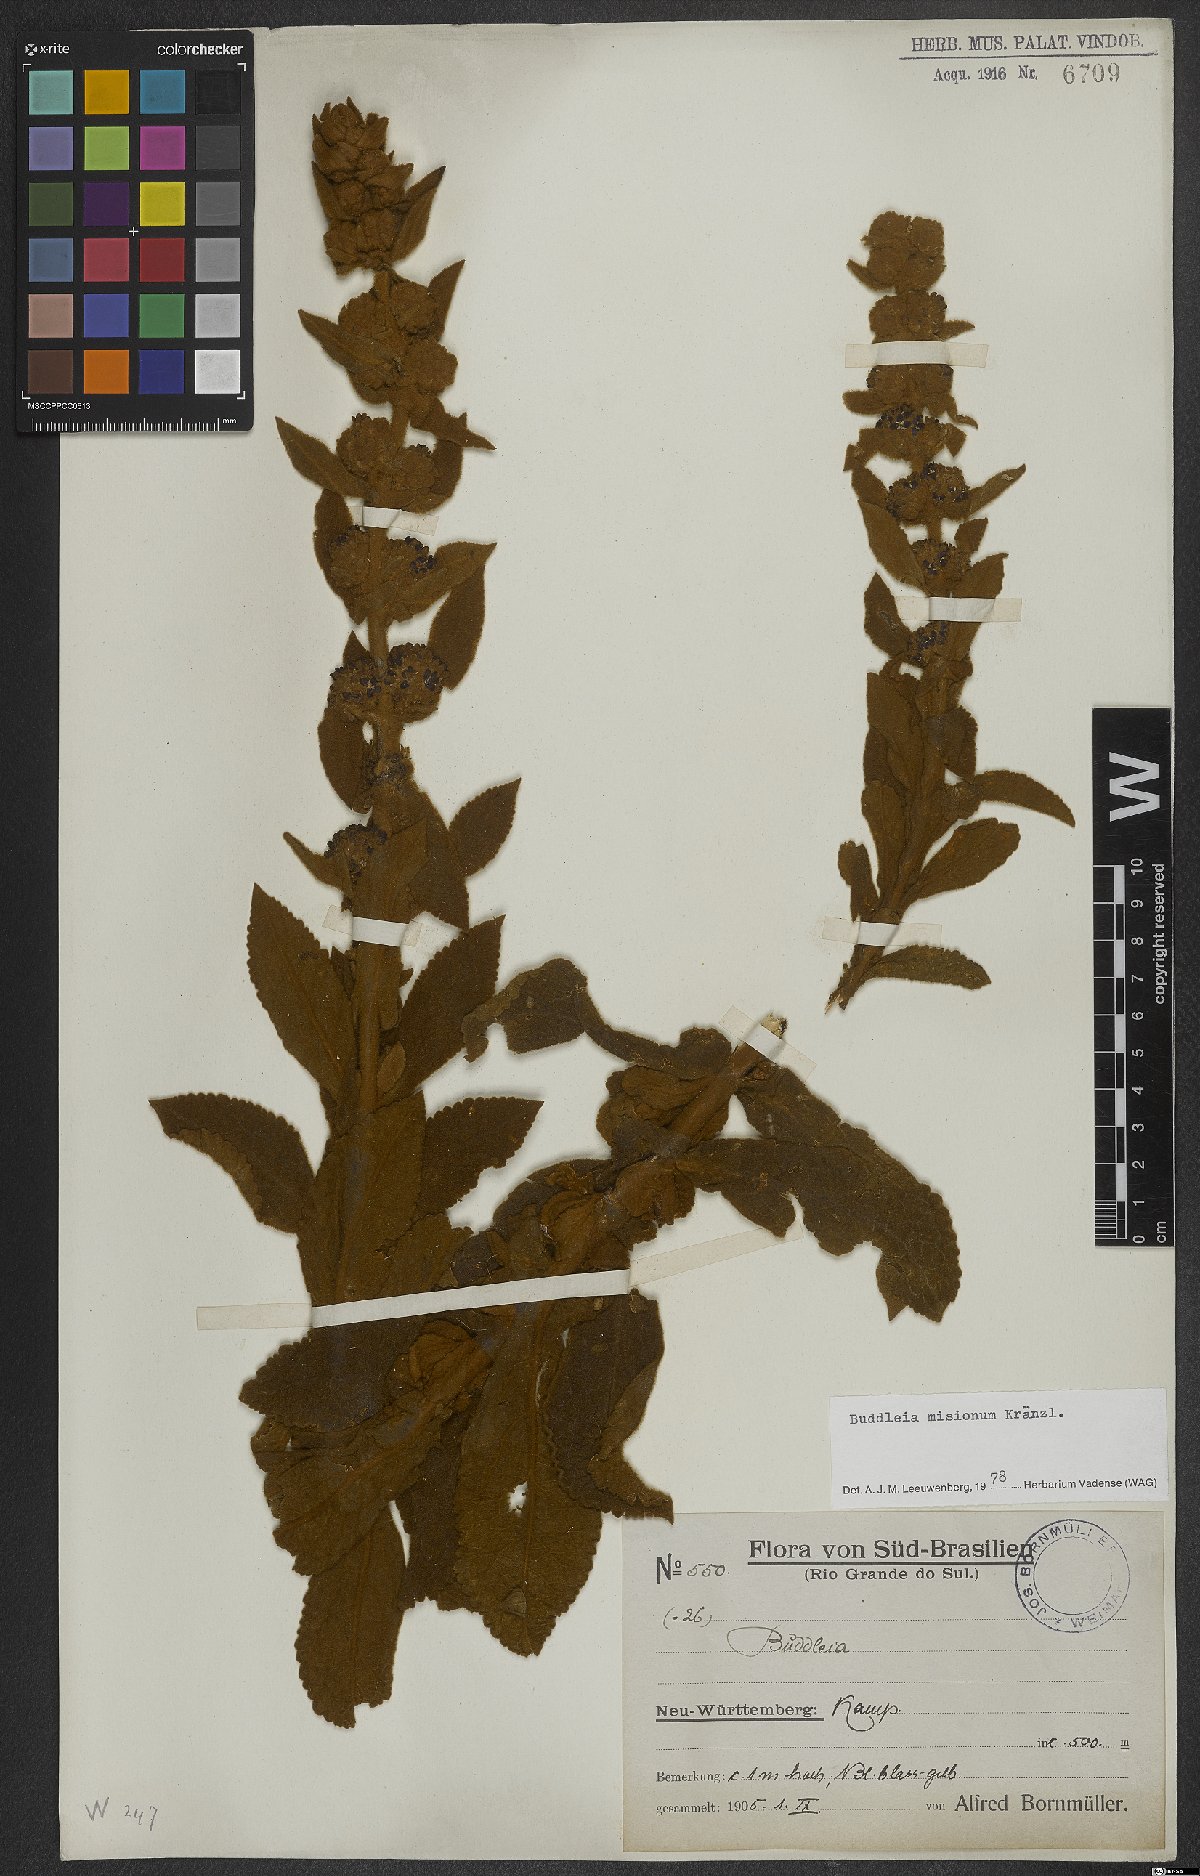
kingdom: Plantae
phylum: Tracheophyta
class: Magnoliopsida
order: Lamiales
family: Scrophulariaceae
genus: Buddleja
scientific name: Buddleja misionum
